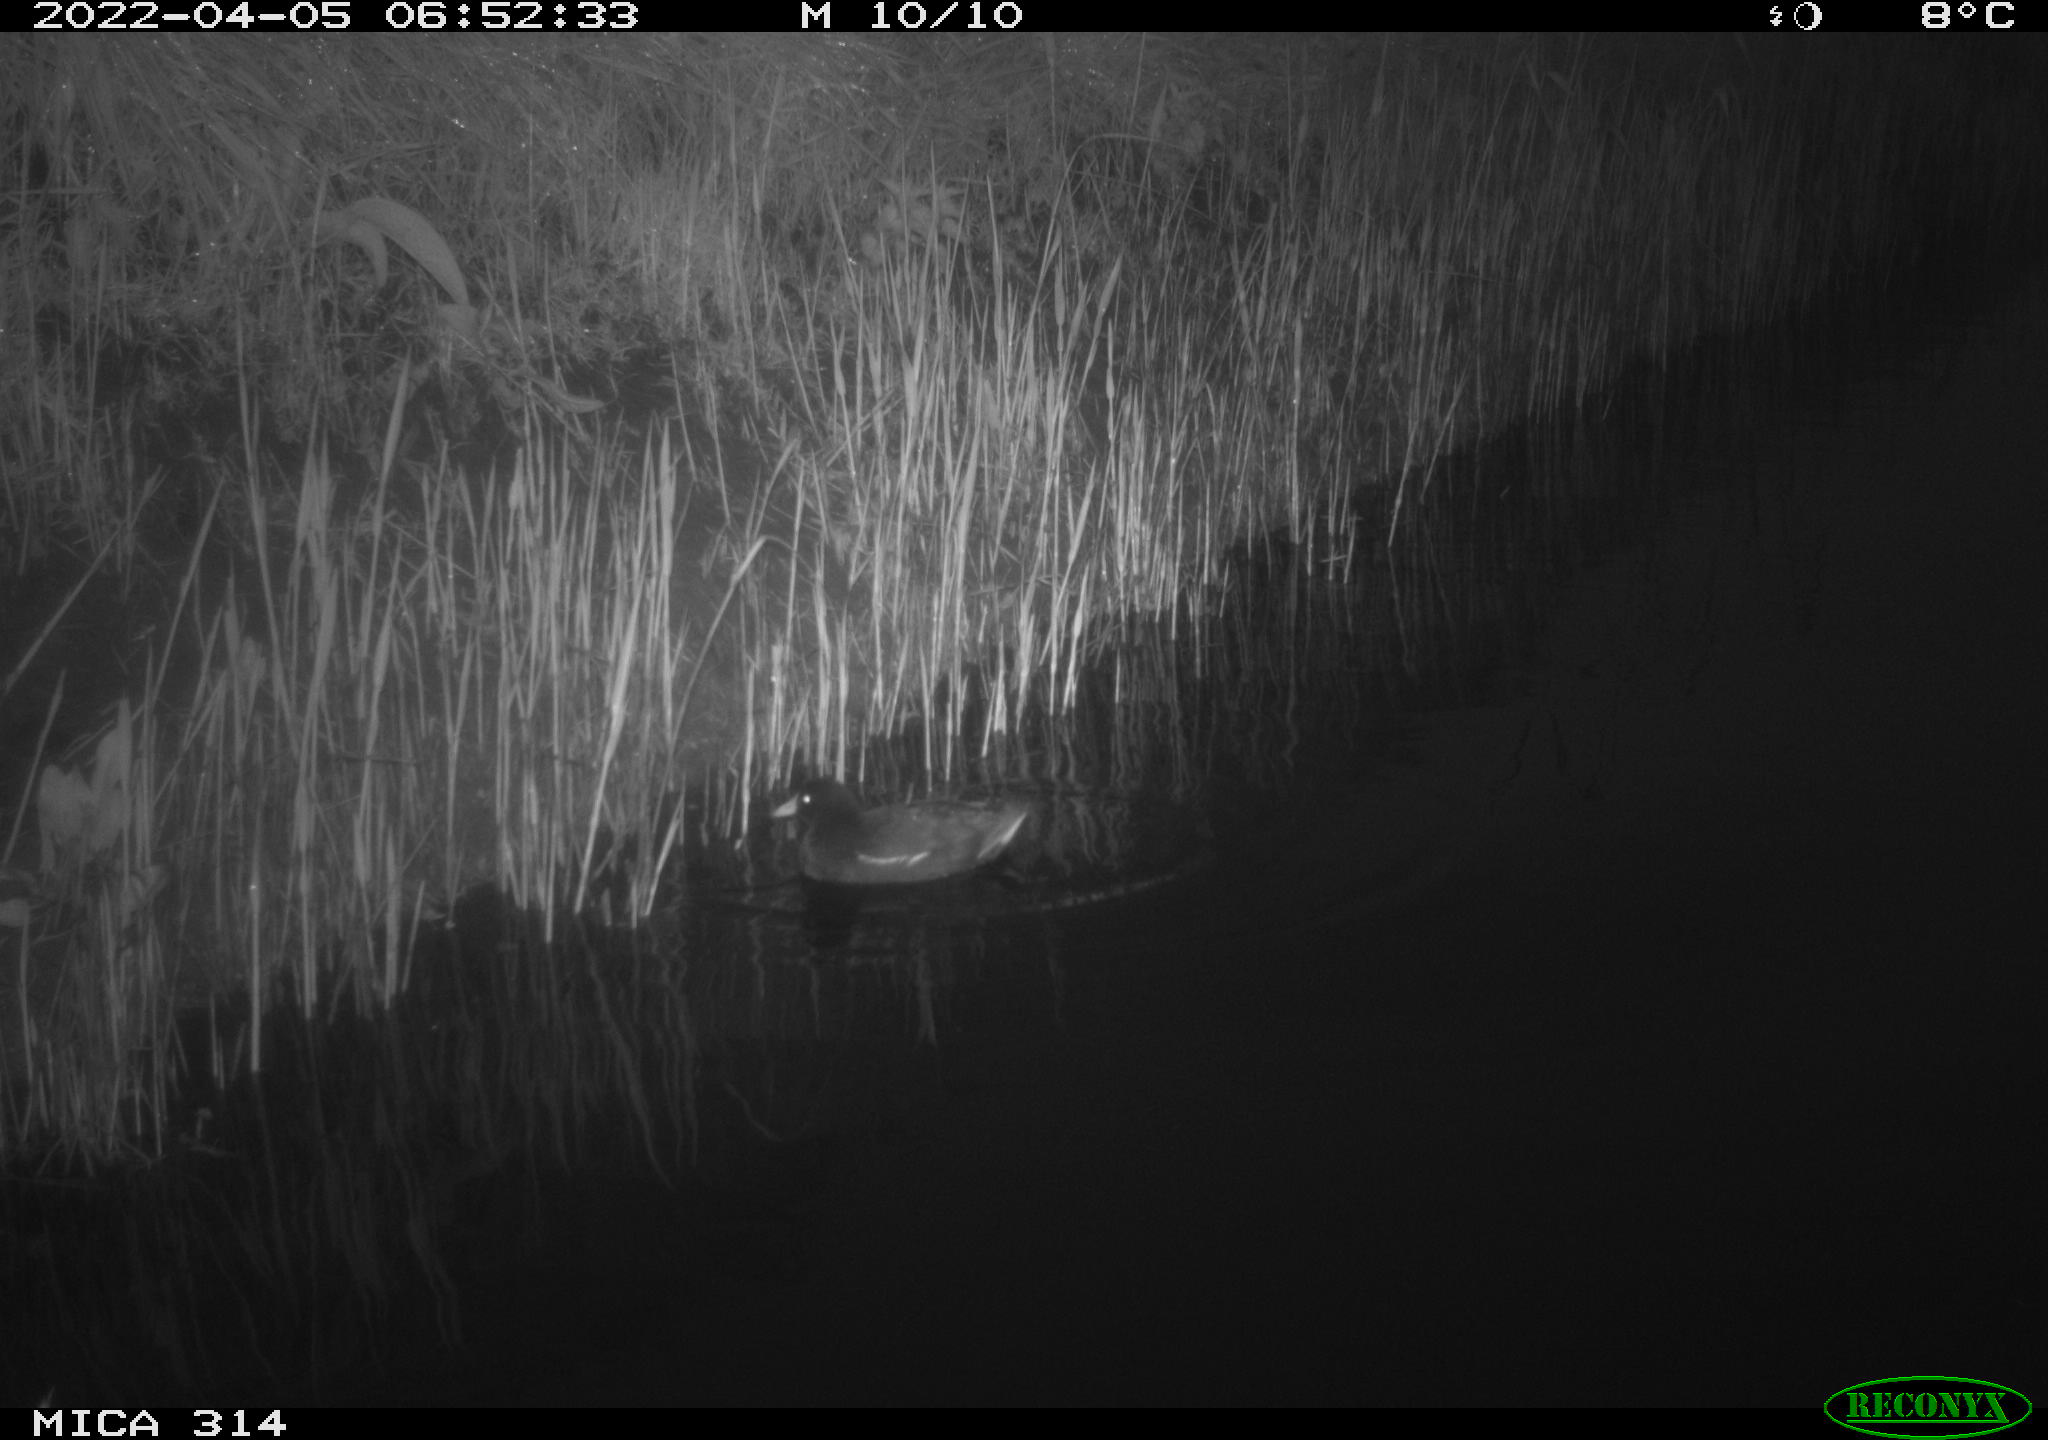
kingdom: Animalia
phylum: Chordata
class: Aves
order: Gruiformes
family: Rallidae
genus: Gallinula
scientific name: Gallinula chloropus
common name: Common moorhen
